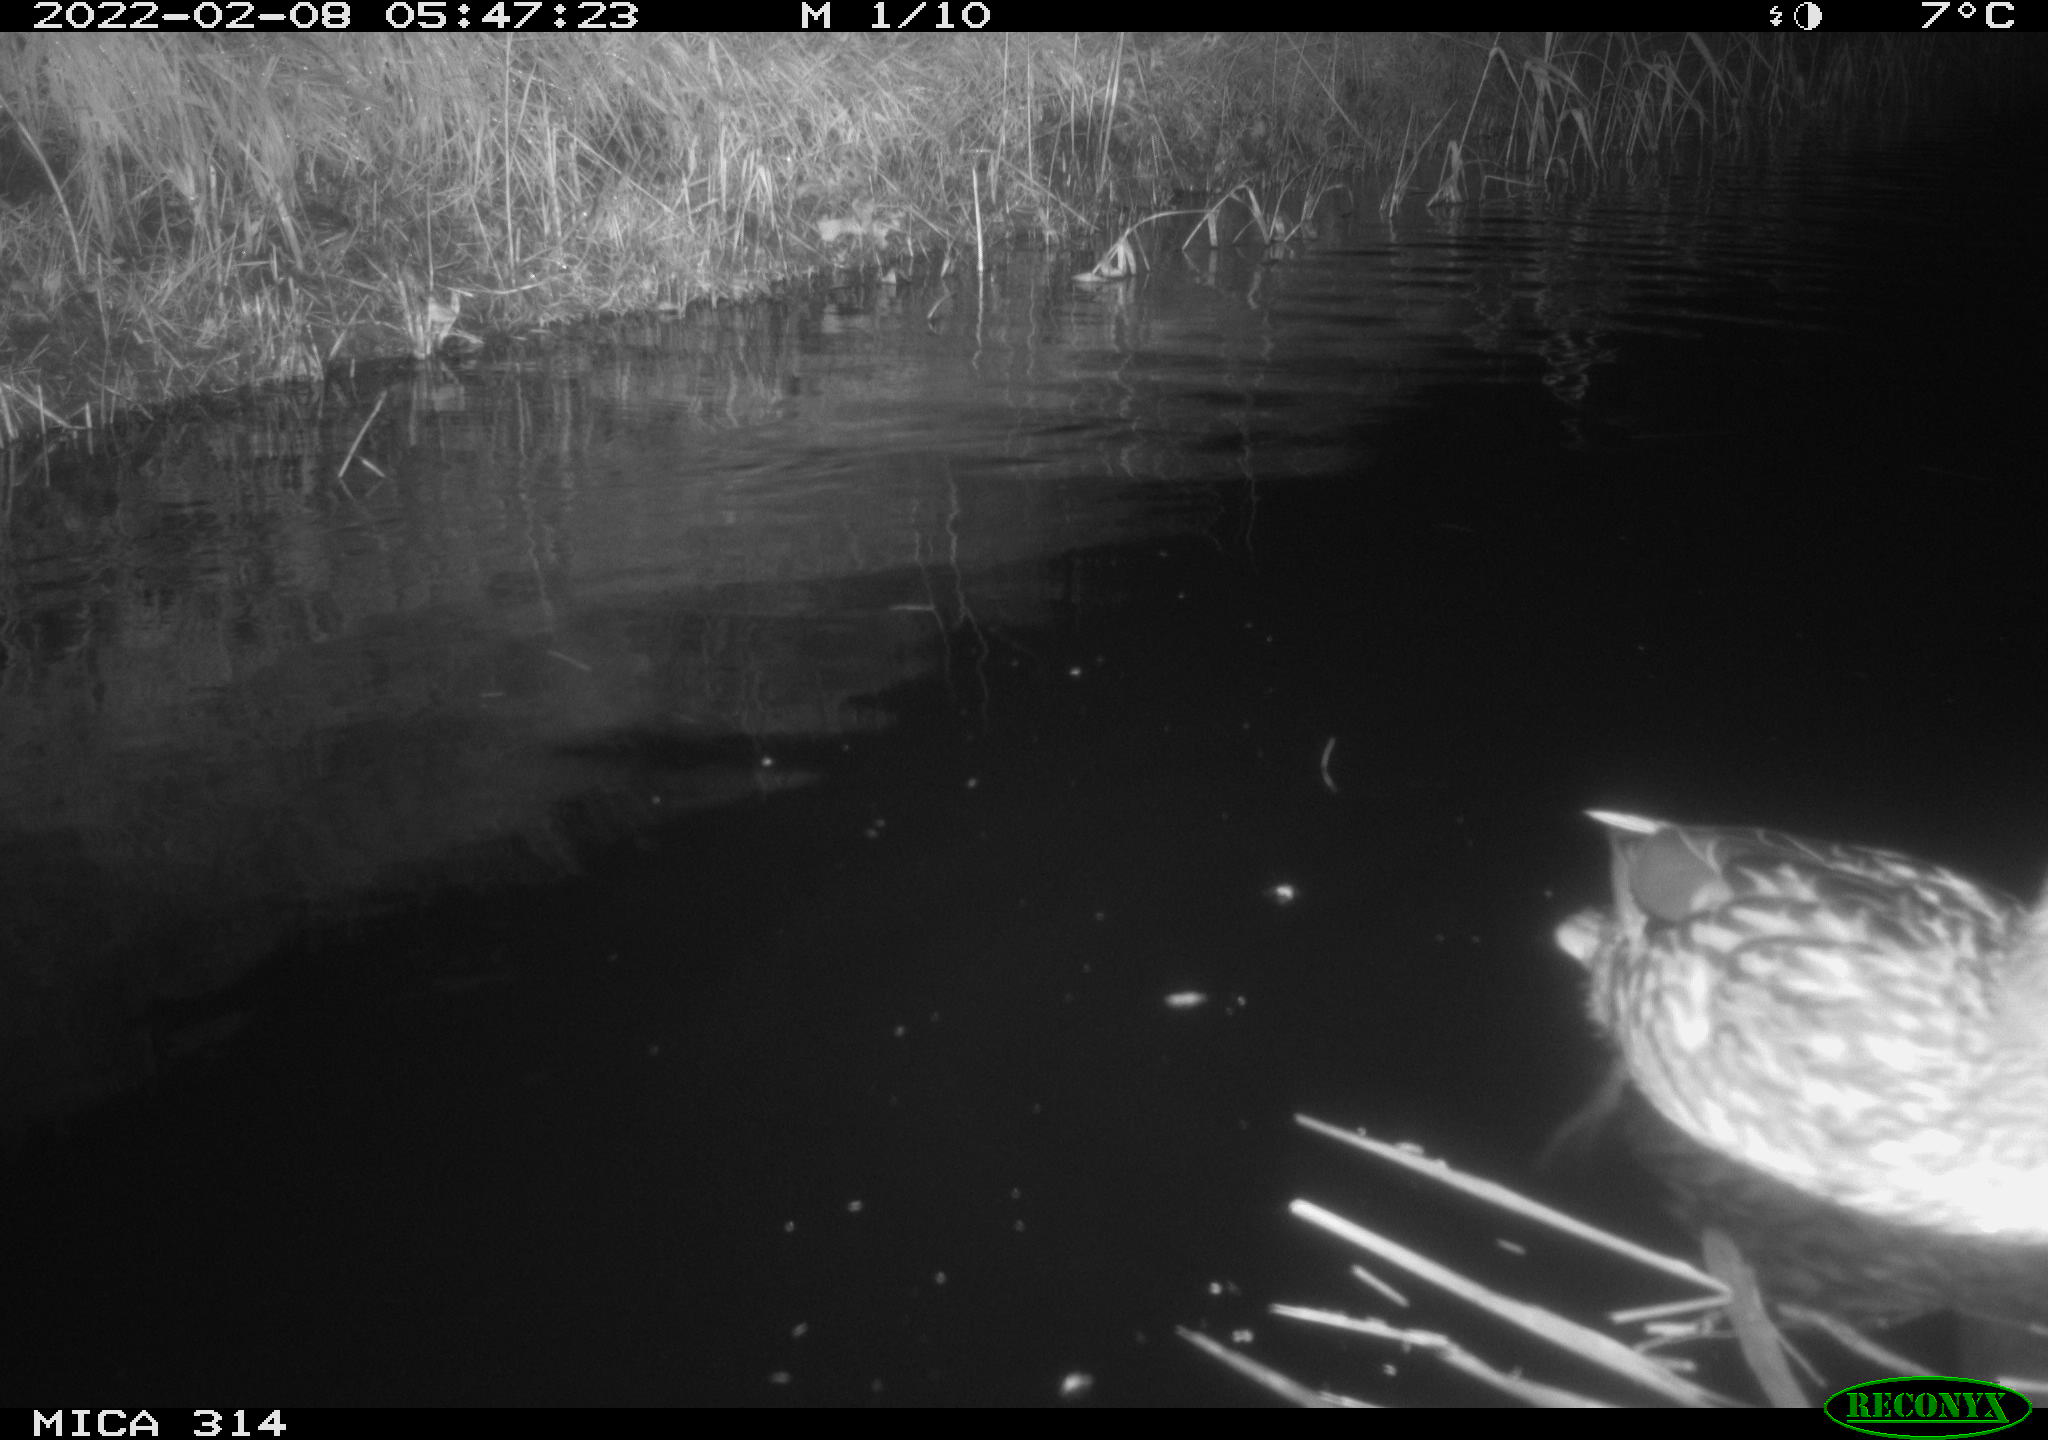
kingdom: Animalia
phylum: Chordata
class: Aves
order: Anseriformes
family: Anatidae
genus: Anas
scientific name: Anas platyrhynchos
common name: Mallard
